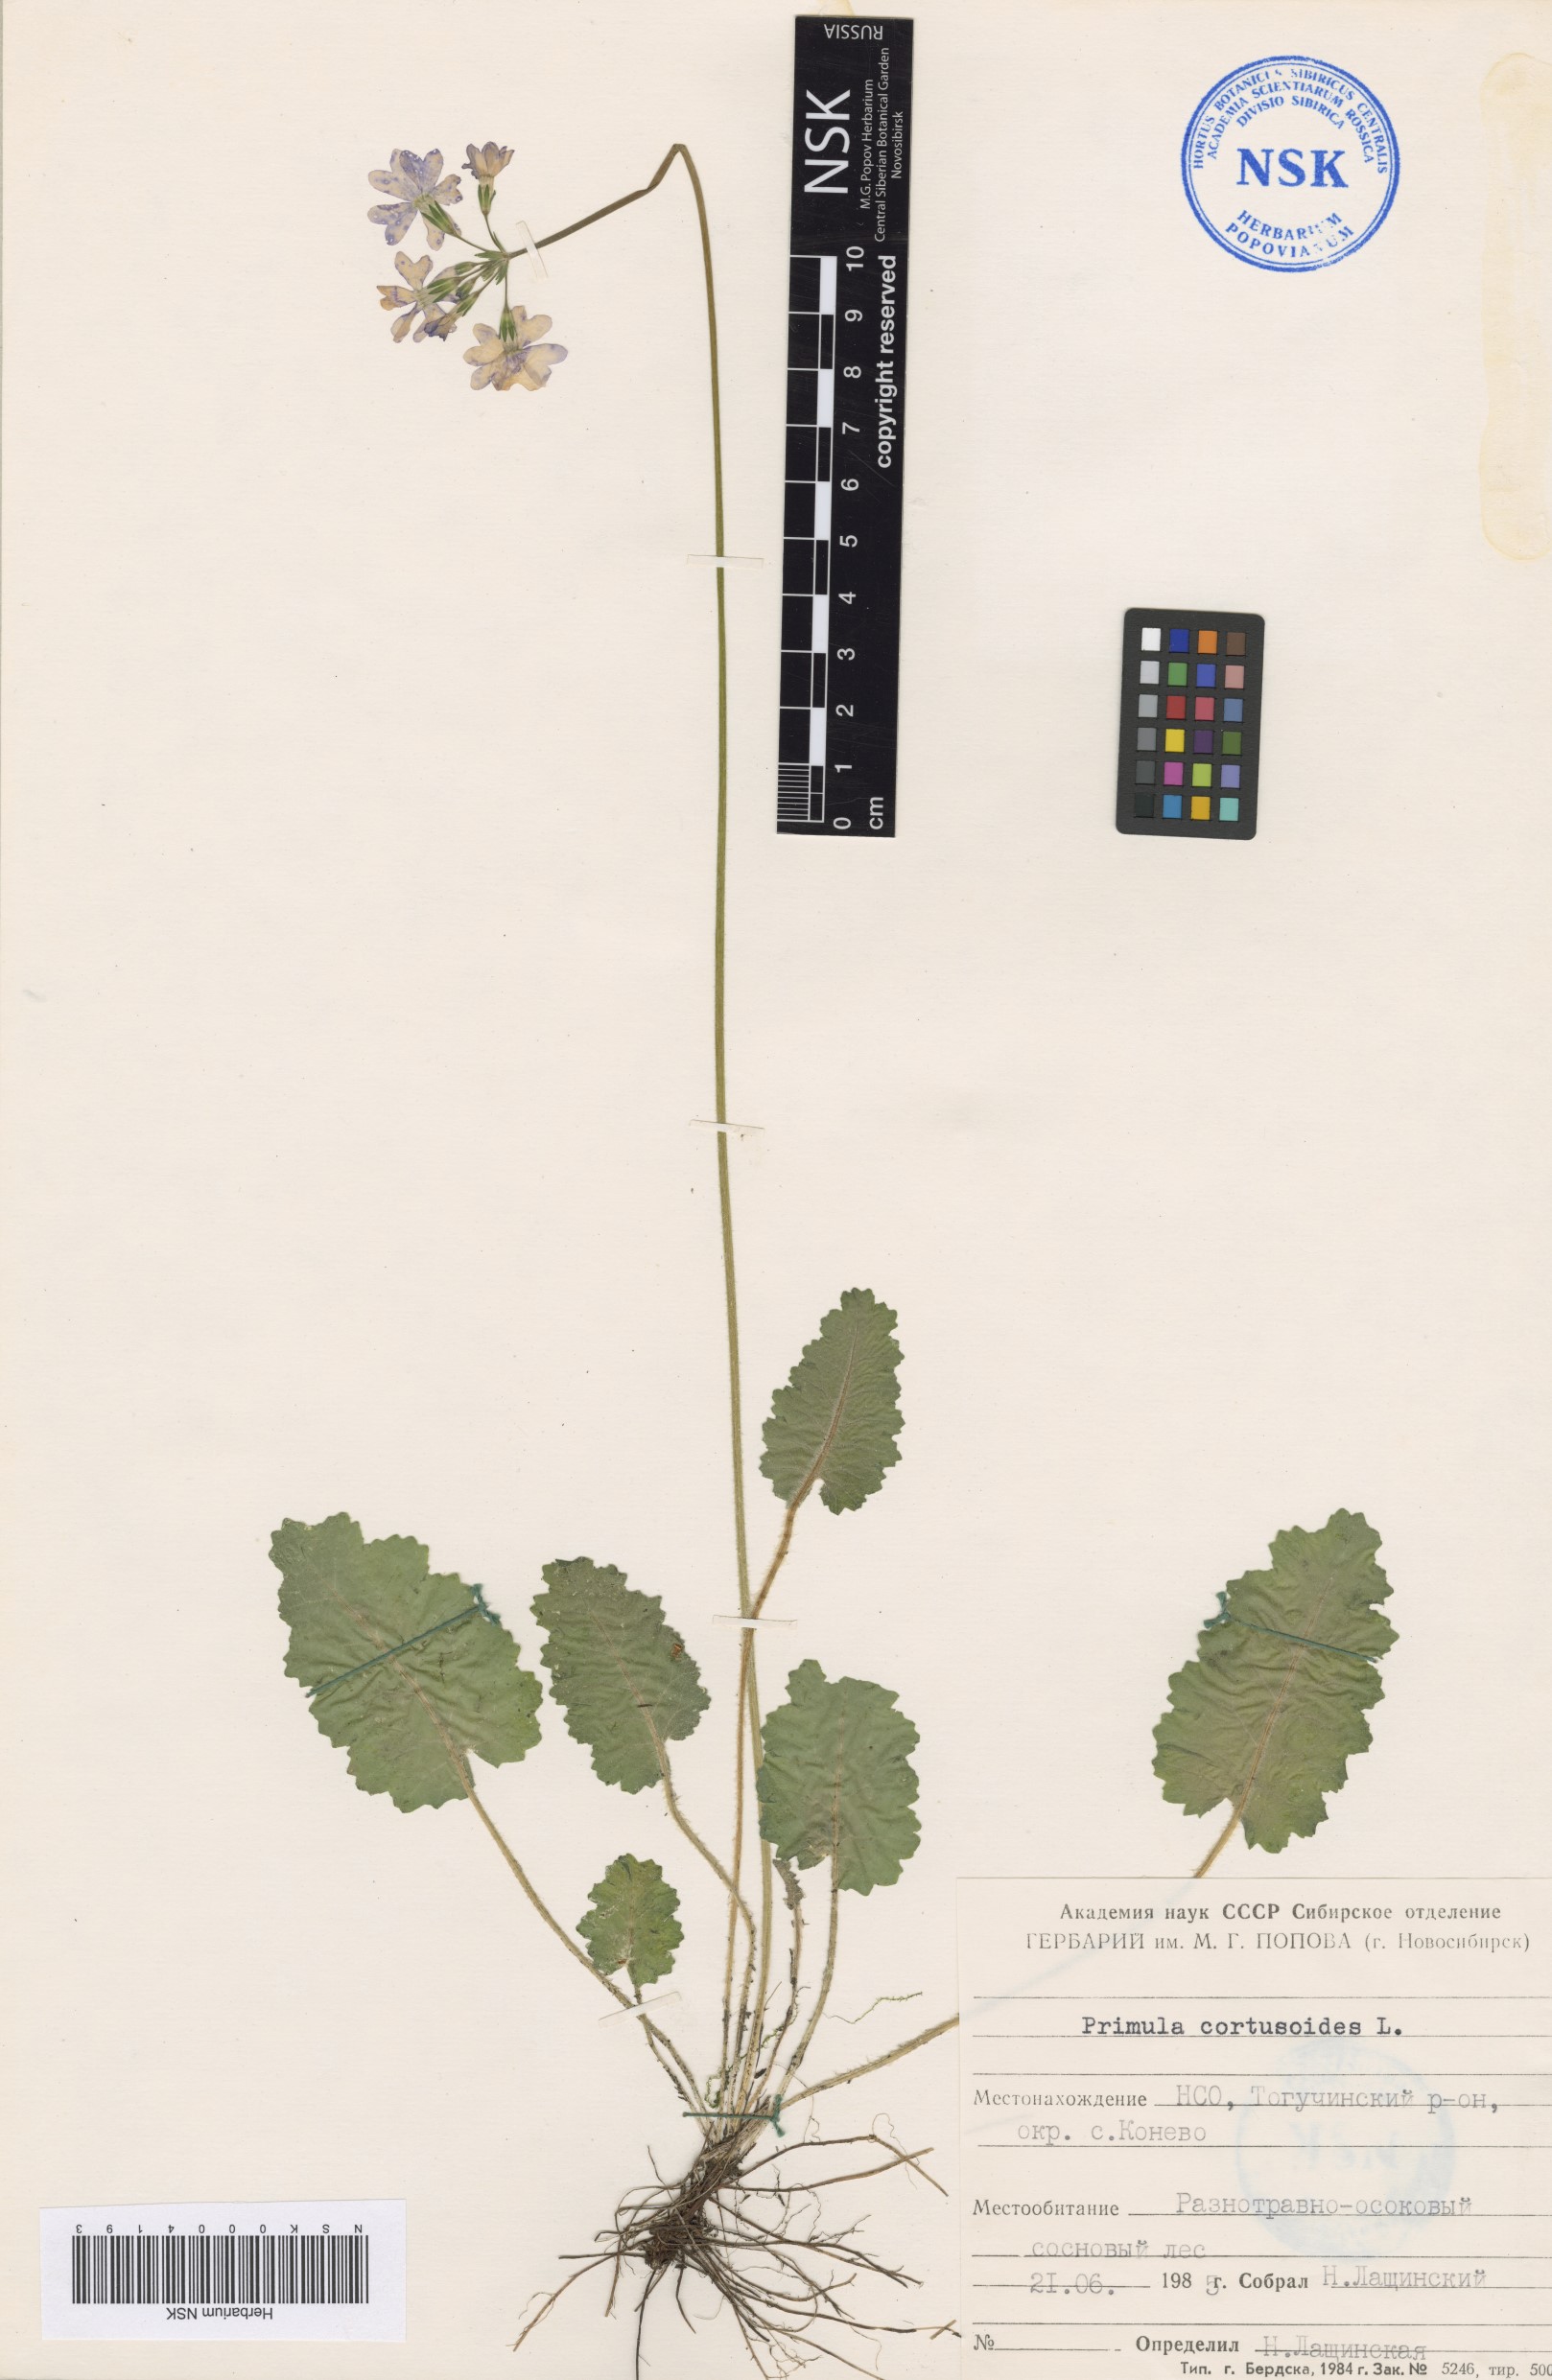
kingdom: Plantae
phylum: Tracheophyta
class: Magnoliopsida
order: Ericales
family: Primulaceae
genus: Primula
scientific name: Primula cortusoides
